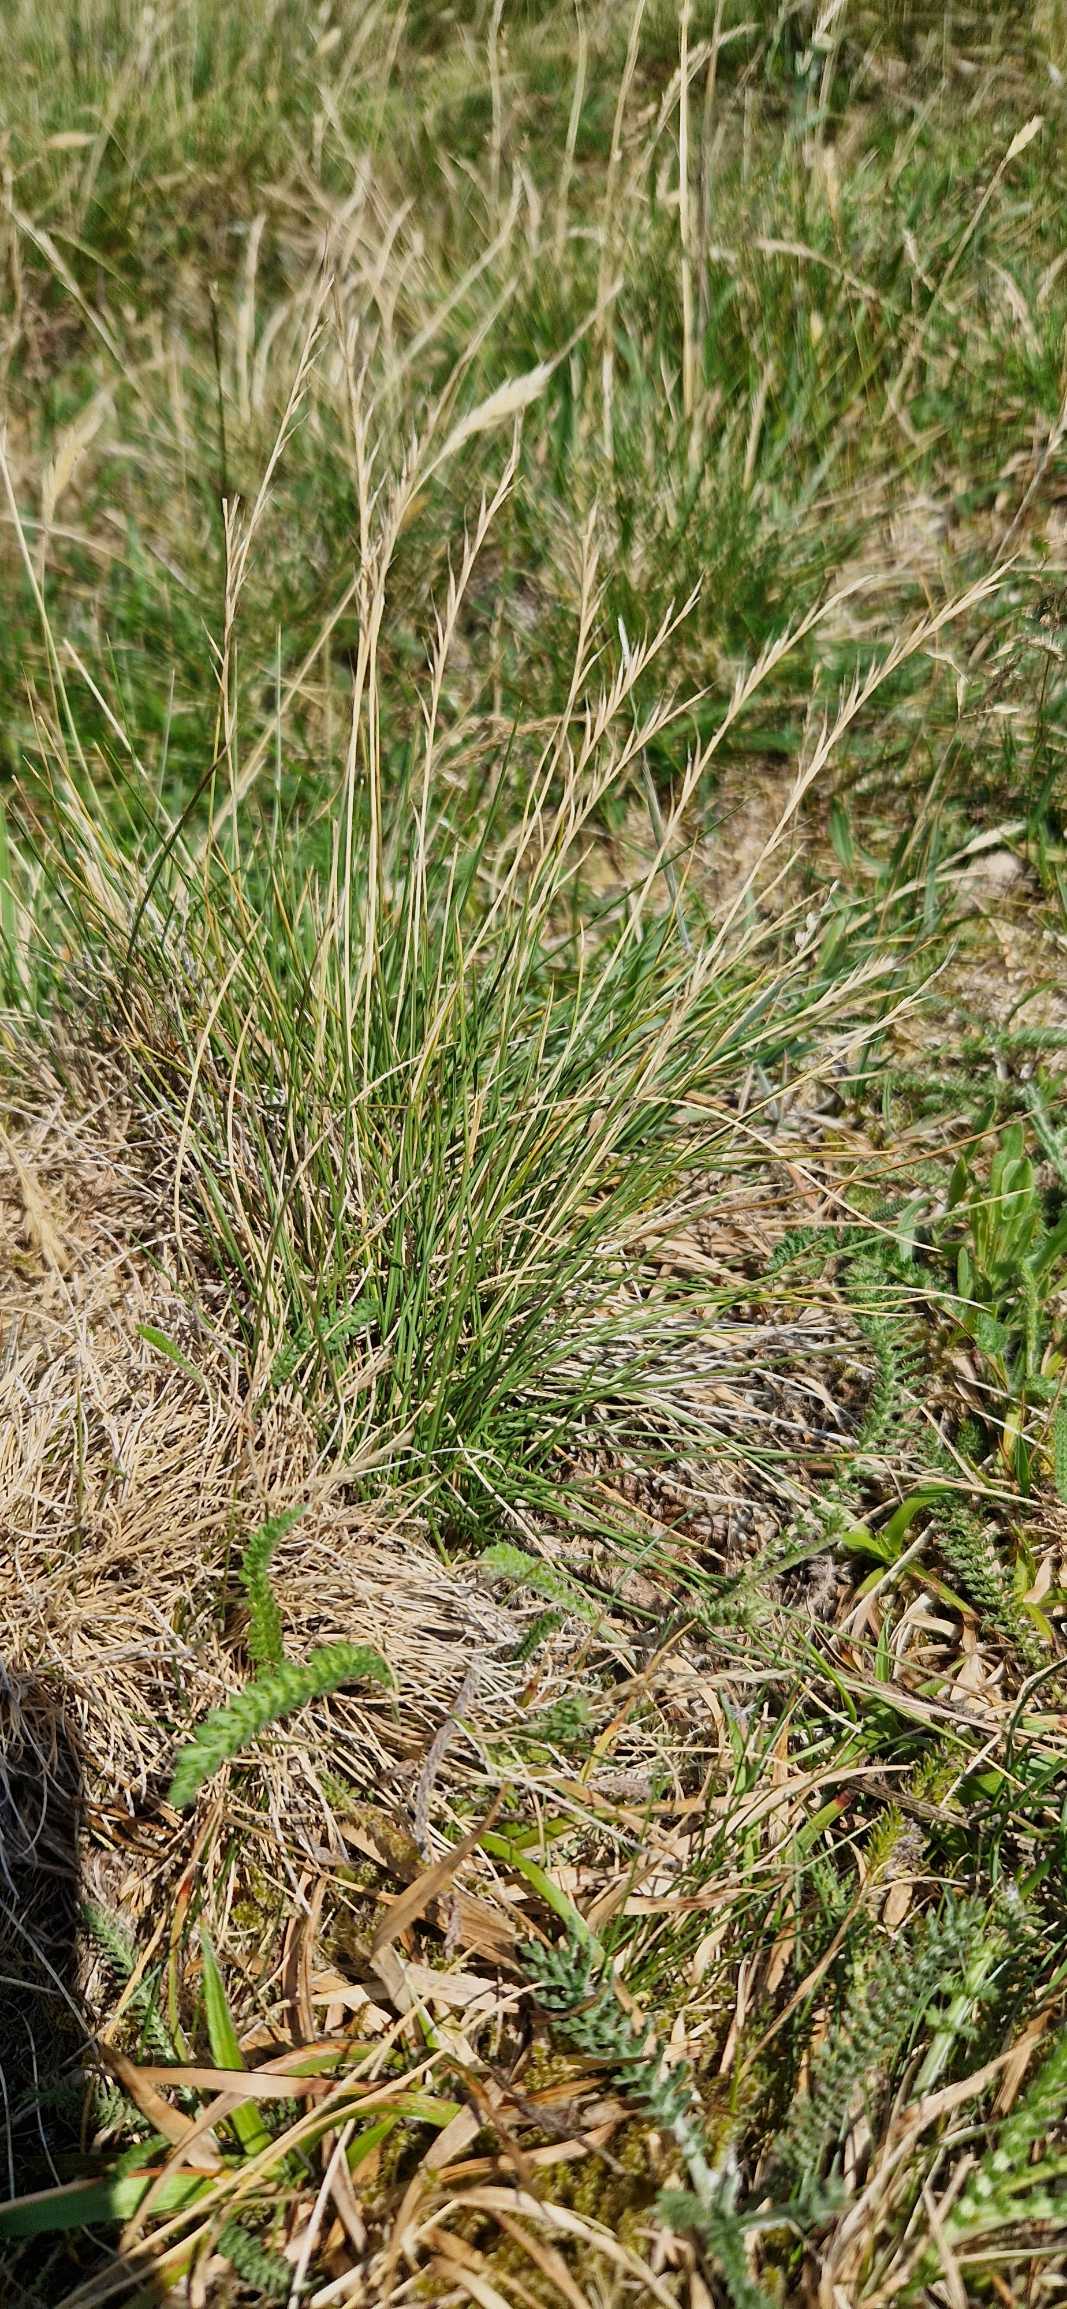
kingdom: Plantae
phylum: Tracheophyta
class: Liliopsida
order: Poales
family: Poaceae
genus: Nardus
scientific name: Nardus stricta
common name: Katteskæg
